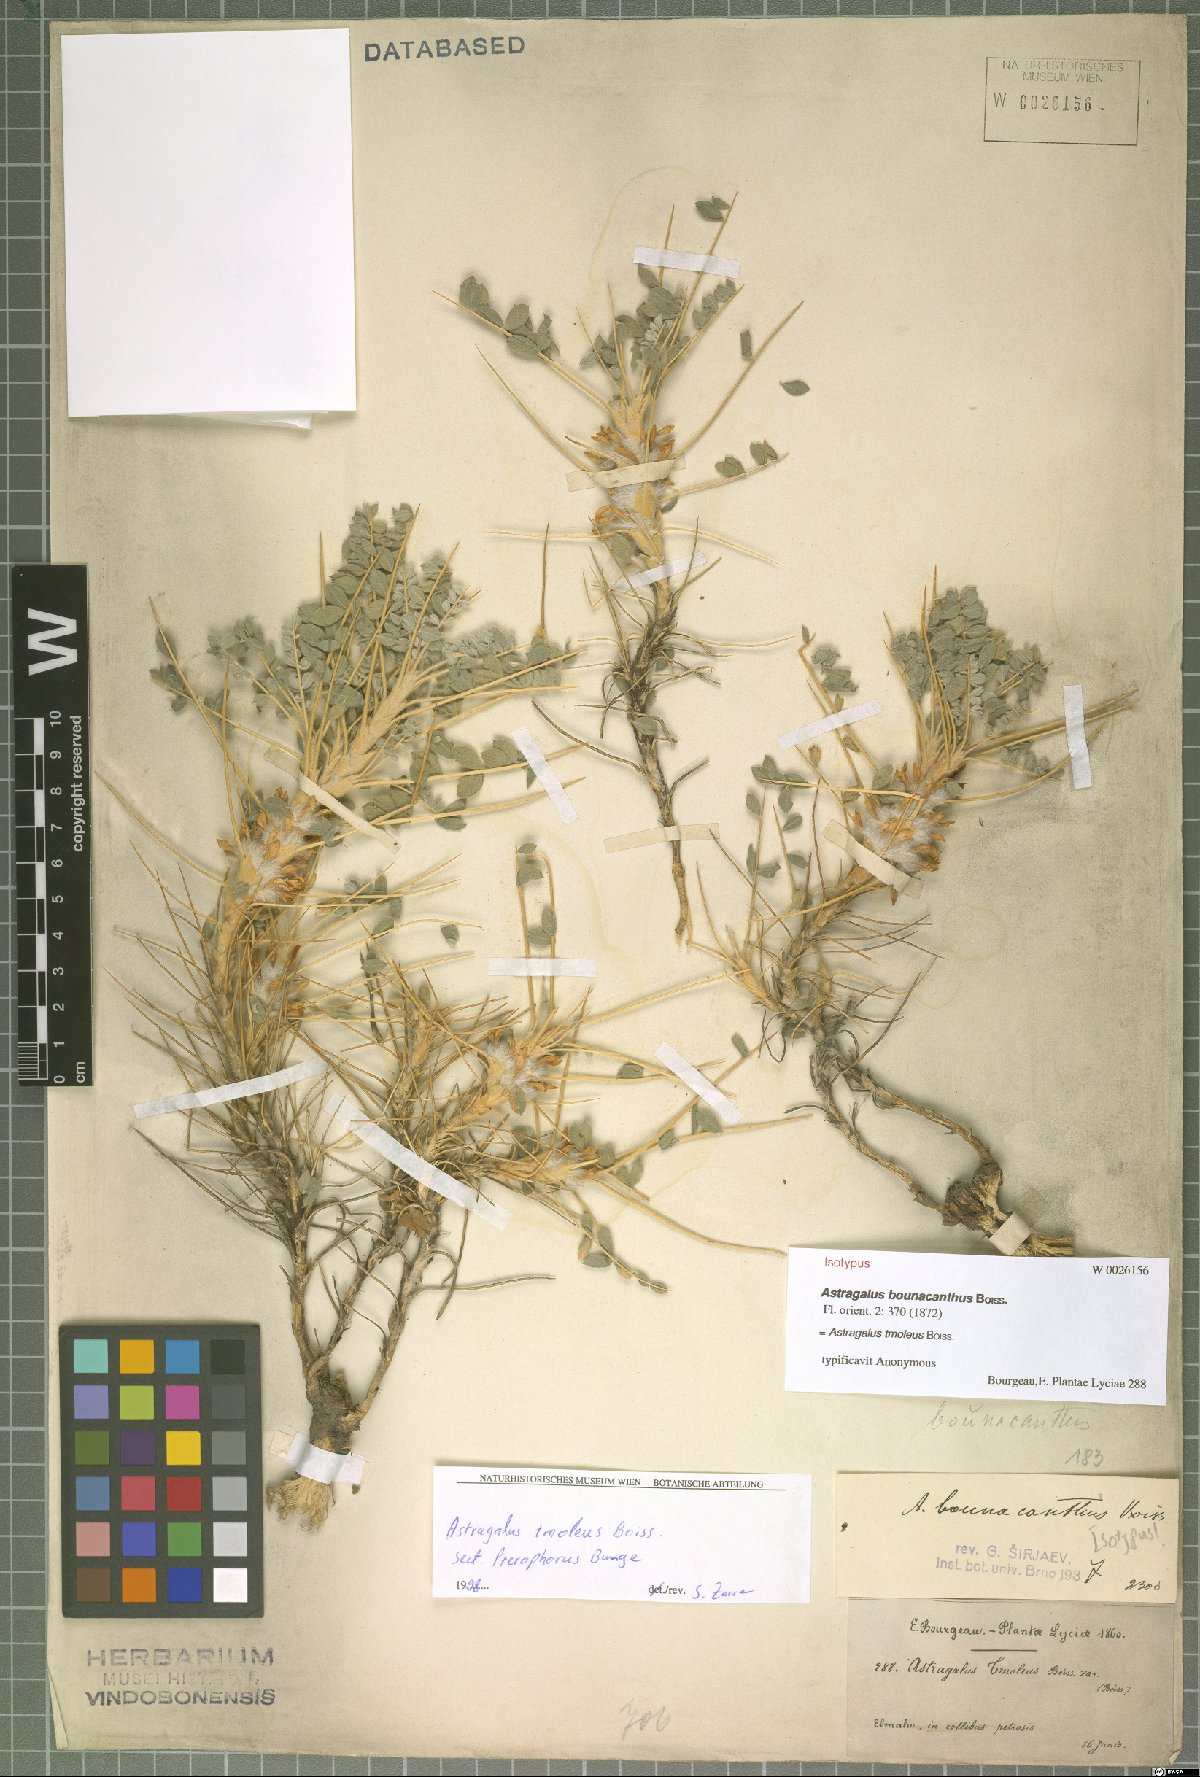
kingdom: Plantae
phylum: Tracheophyta
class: Magnoliopsida
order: Fabales
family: Fabaceae
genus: Astragalus
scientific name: Astragalus tmoleus
